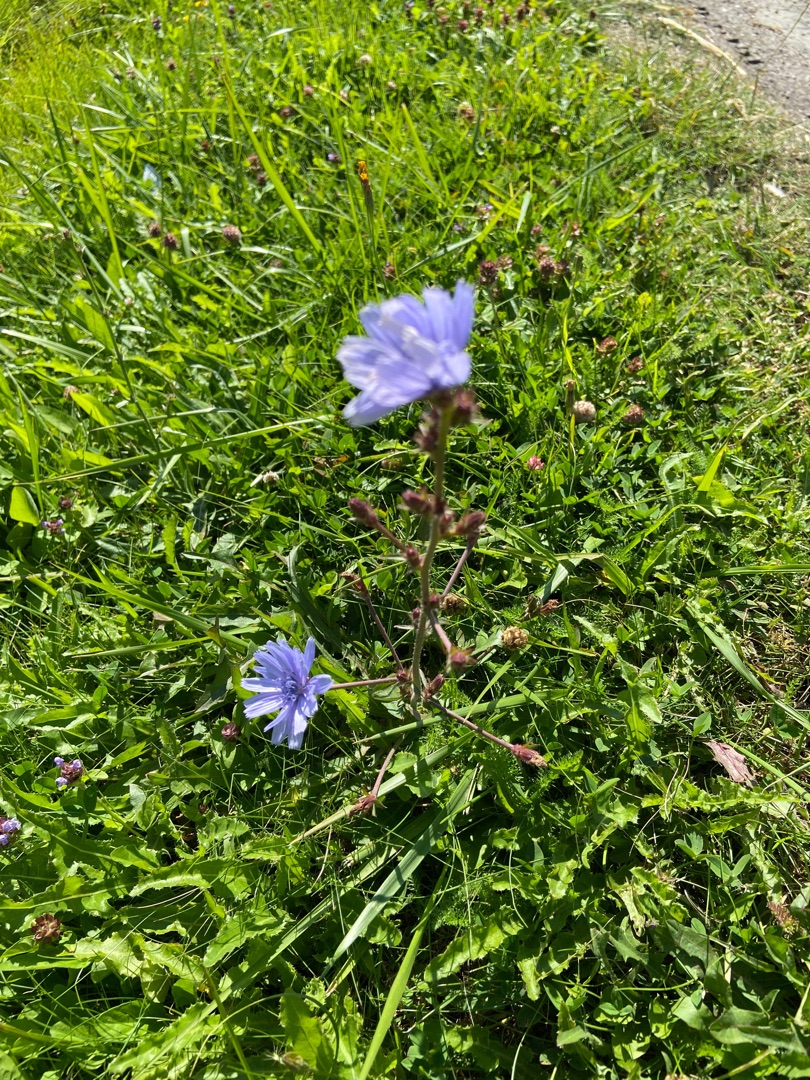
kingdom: Plantae
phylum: Tracheophyta
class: Magnoliopsida
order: Asterales
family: Asteraceae
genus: Cichorium
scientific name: Cichorium intybus
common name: Cikorie
